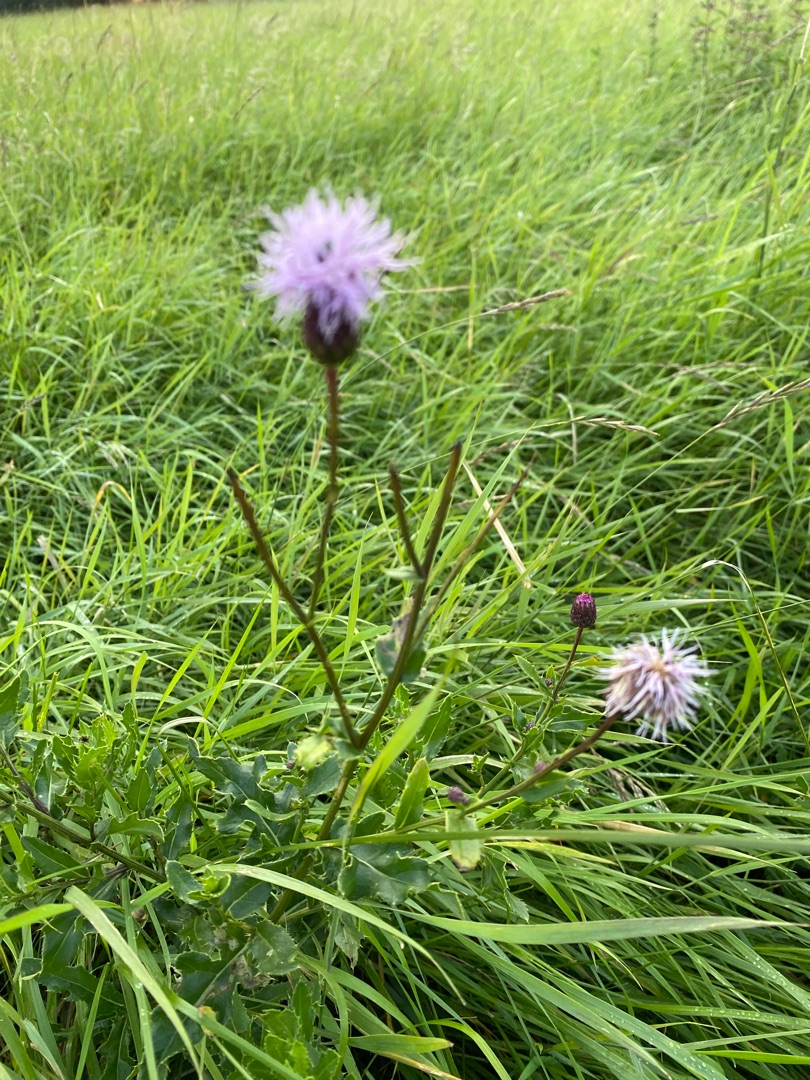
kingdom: Plantae
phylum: Tracheophyta
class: Magnoliopsida
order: Asterales
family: Asteraceae
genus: Cirsium
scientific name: Cirsium arvense
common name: Ager-tidsel
